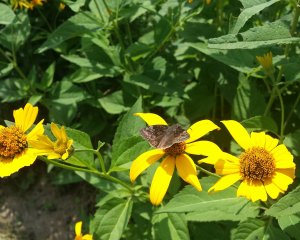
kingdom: Animalia
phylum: Arthropoda
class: Insecta
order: Lepidoptera
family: Hesperiidae
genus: Gesta
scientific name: Gesta
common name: Wild Indigo Duskywing
